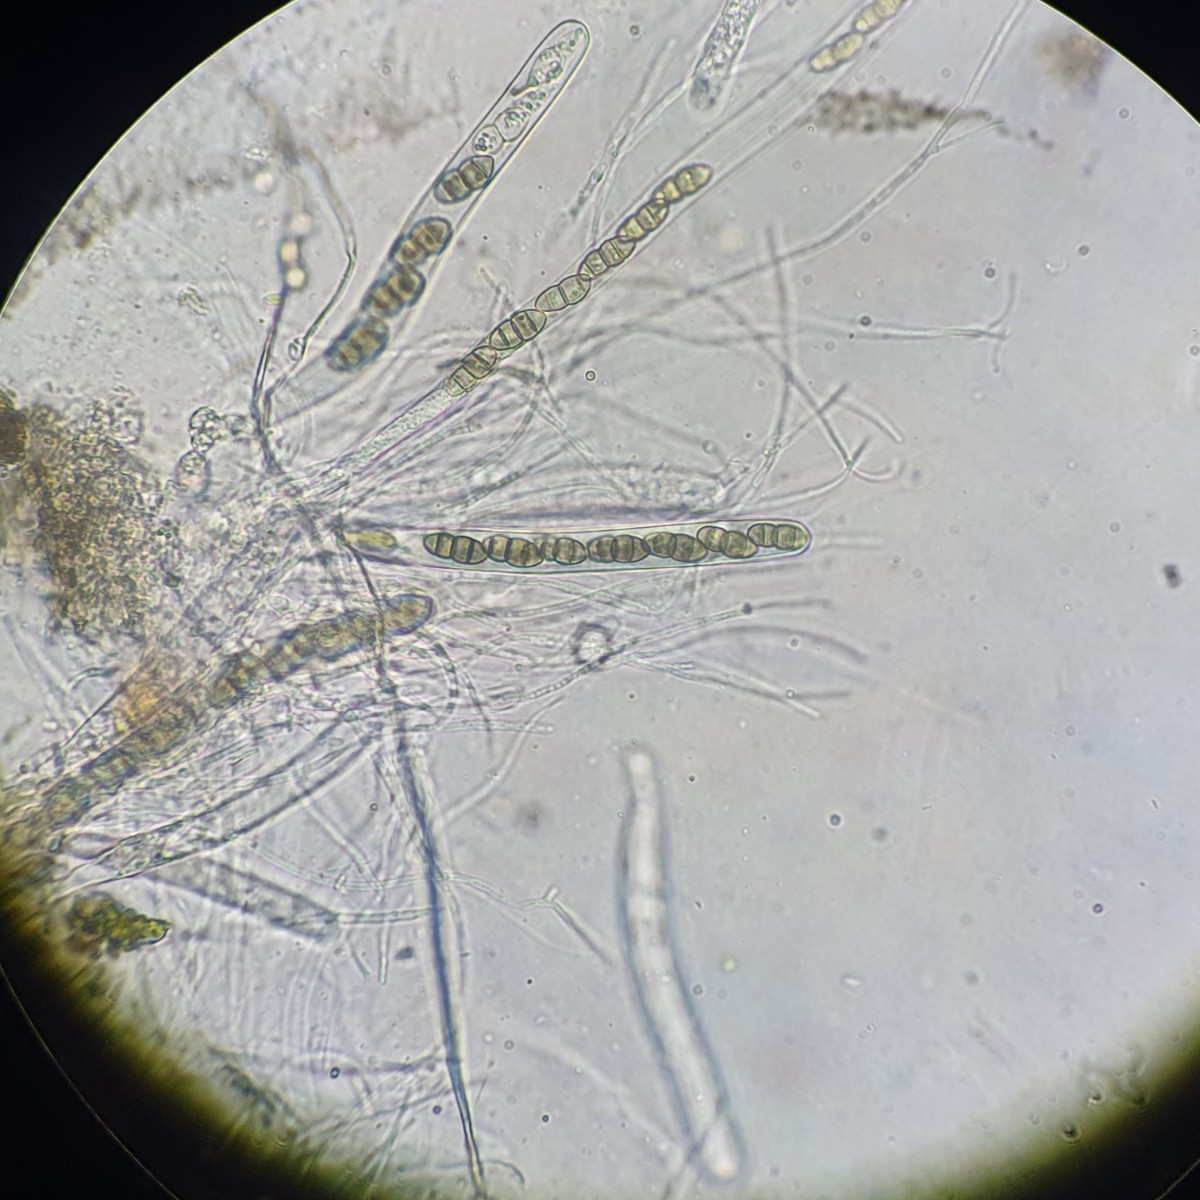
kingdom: Plantae
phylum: Bryophyta
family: Dothideomycetes
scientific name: Dothideomycetes
